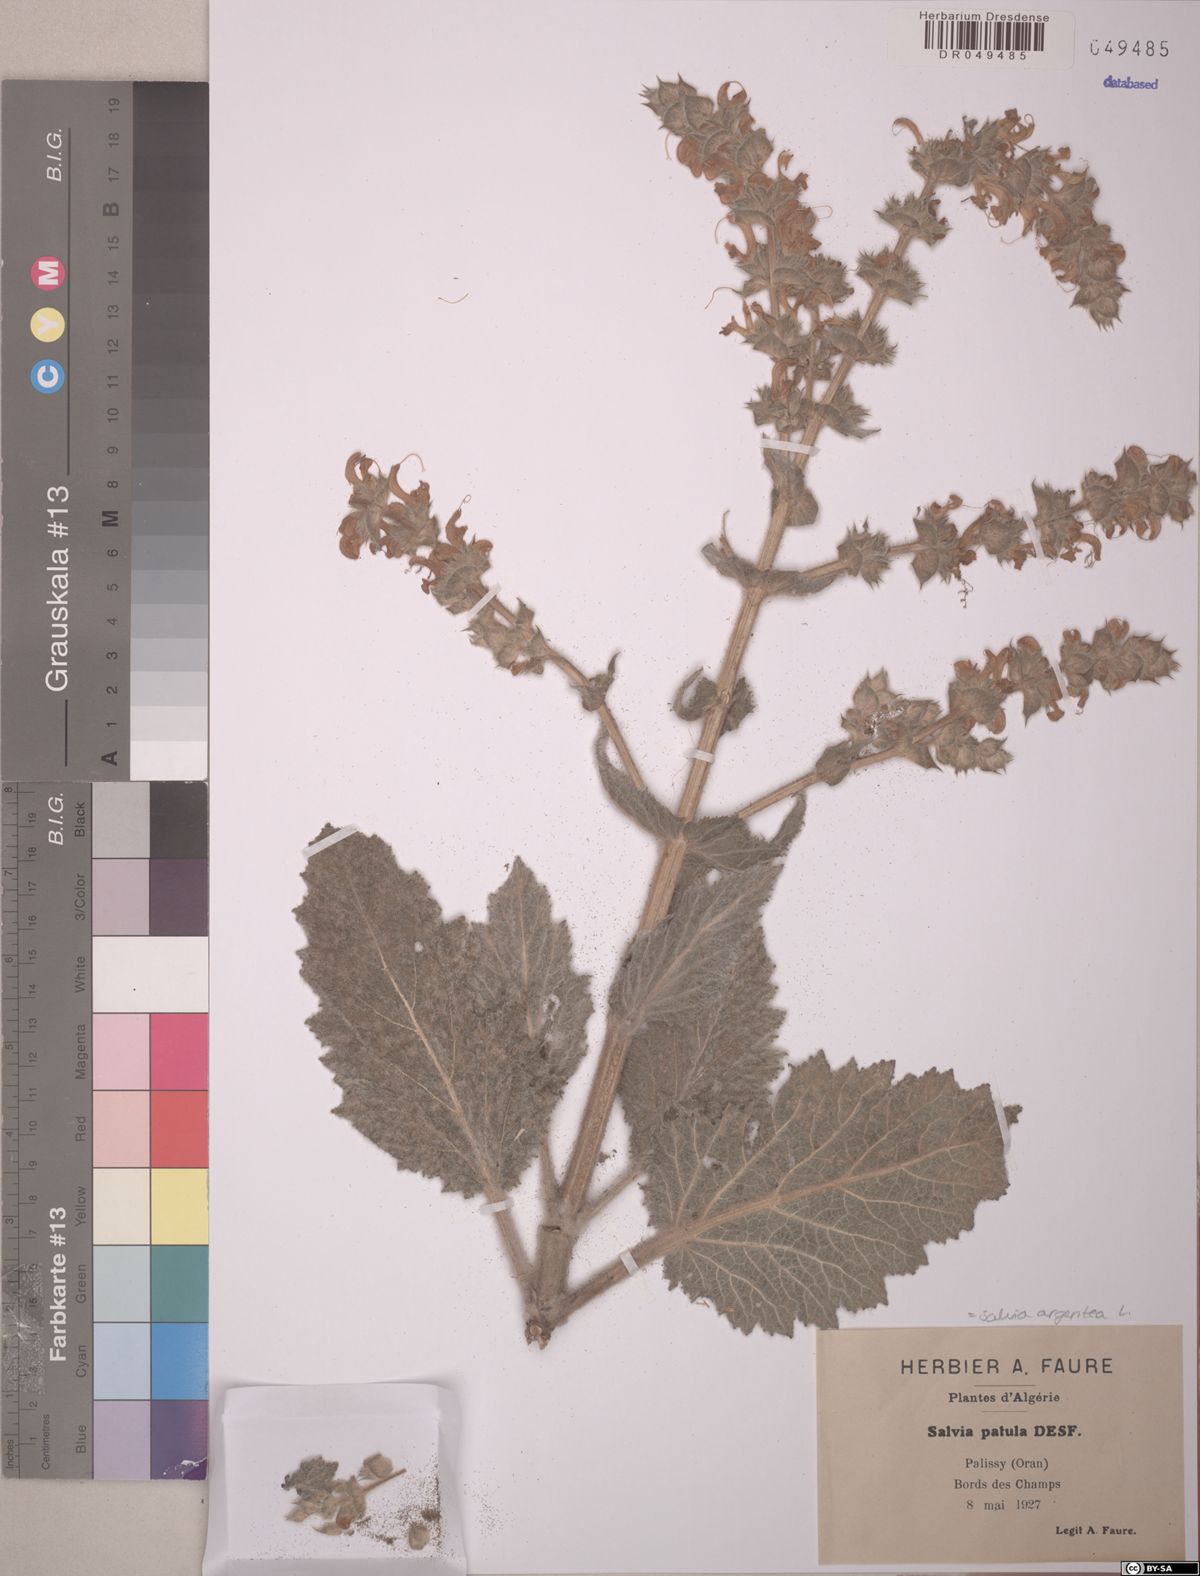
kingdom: Plantae
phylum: Tracheophyta
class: Magnoliopsida
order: Lamiales
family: Lamiaceae
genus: Salvia
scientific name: Salvia argentea
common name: Silver sage
